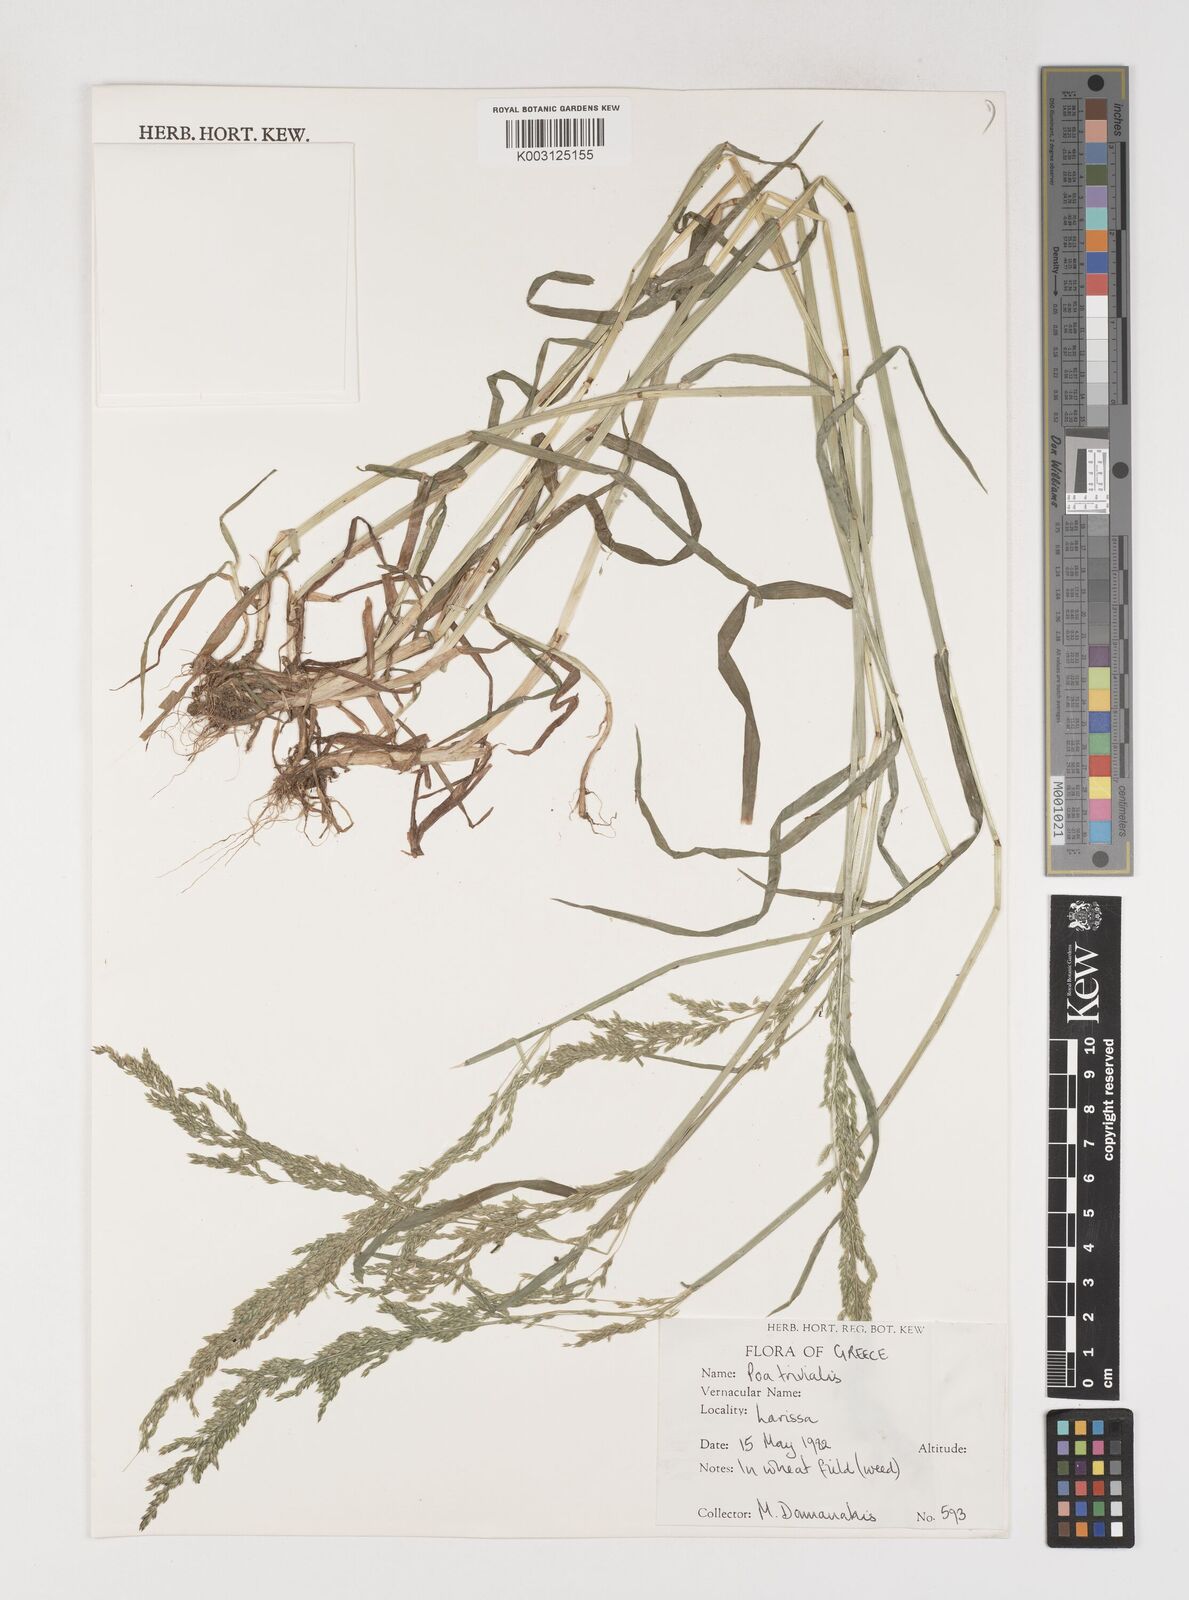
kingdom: Plantae
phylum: Tracheophyta
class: Liliopsida
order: Poales
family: Poaceae
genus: Poa
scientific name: Poa trivialis
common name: Rough bluegrass
